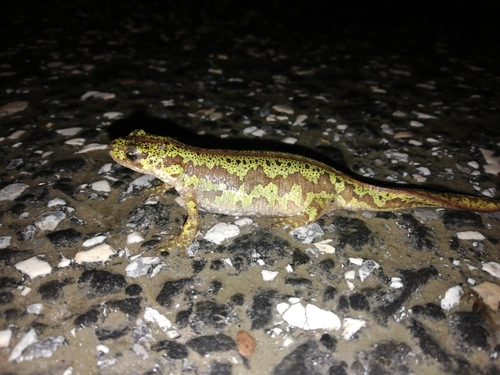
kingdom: Animalia
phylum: Chordata
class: Amphibia
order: Caudata
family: Salamandridae
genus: Triturus
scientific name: Triturus pygmaeus
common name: Southern marbled newt
